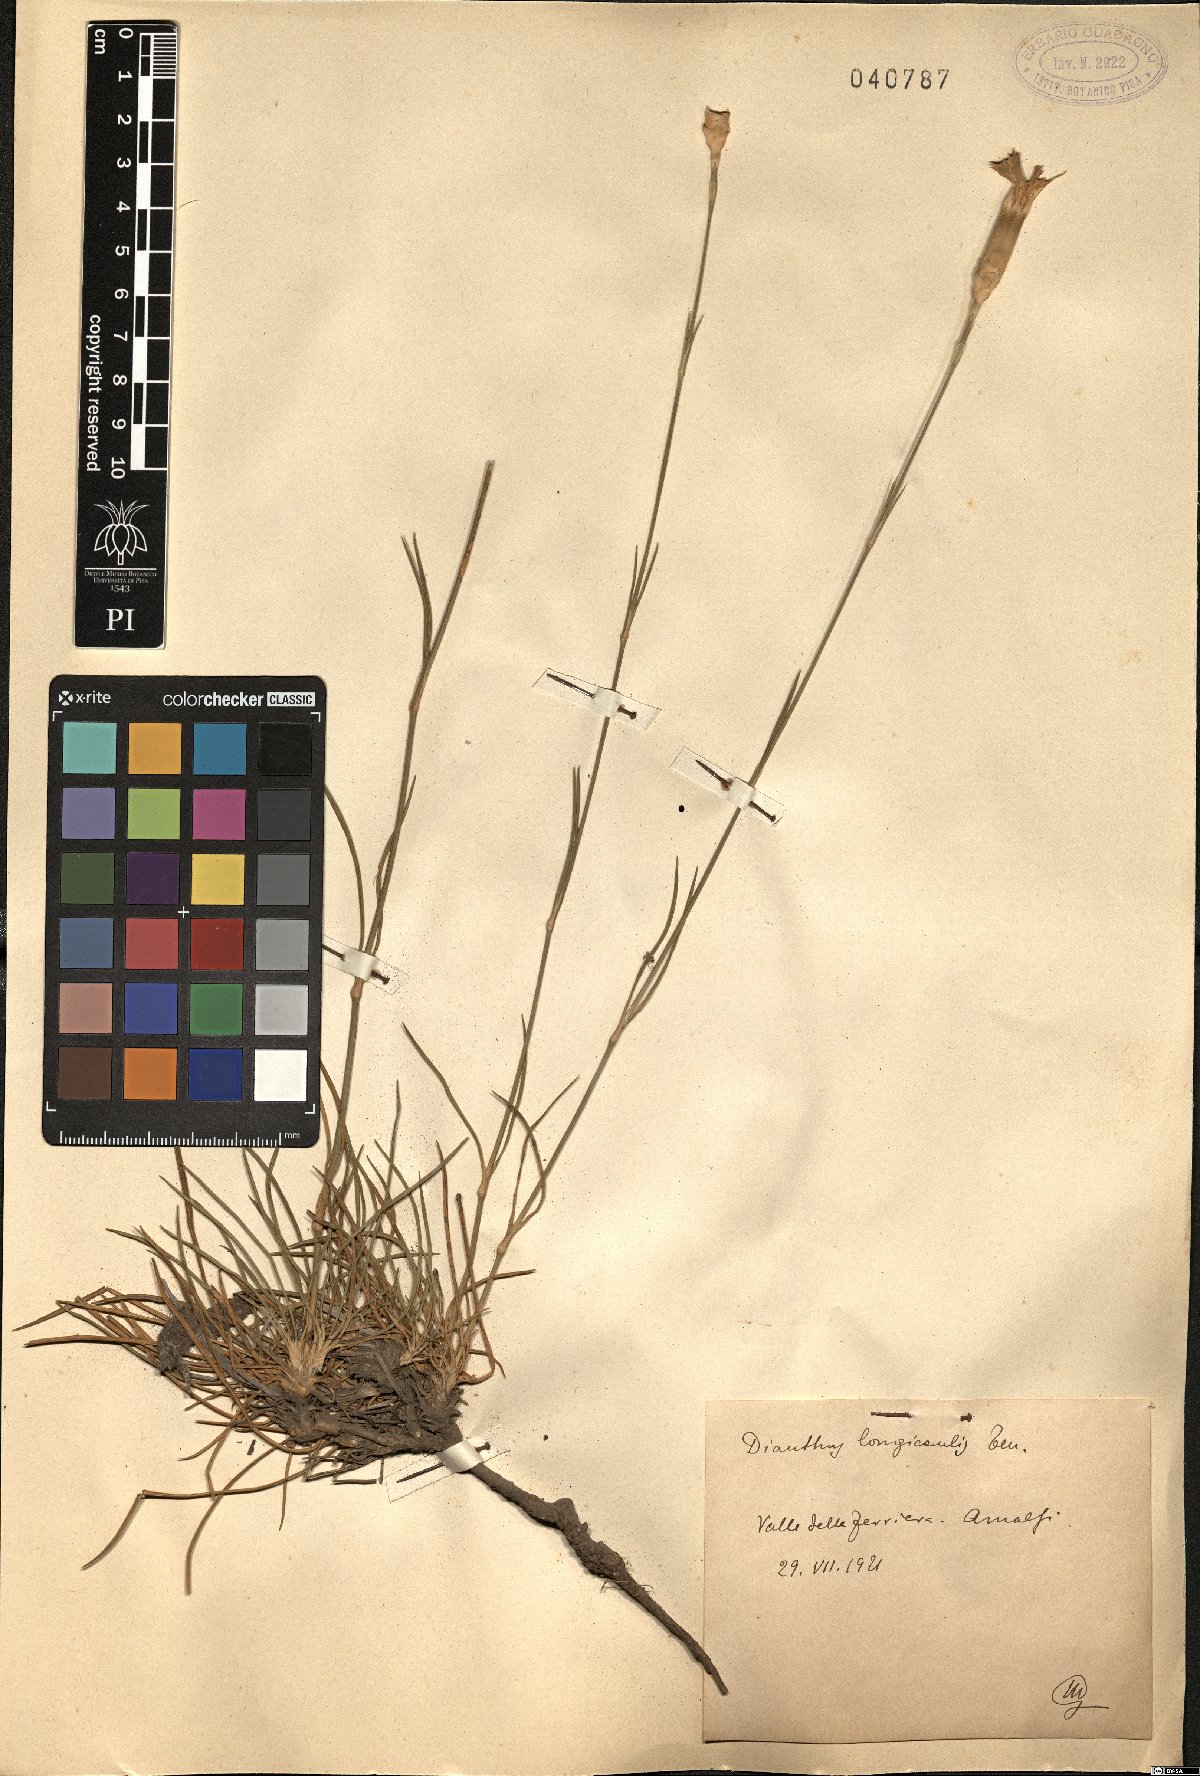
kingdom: Plantae
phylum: Tracheophyta
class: Magnoliopsida
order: Caryophyllales
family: Caryophyllaceae
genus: Dianthus
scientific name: Dianthus virgineus
